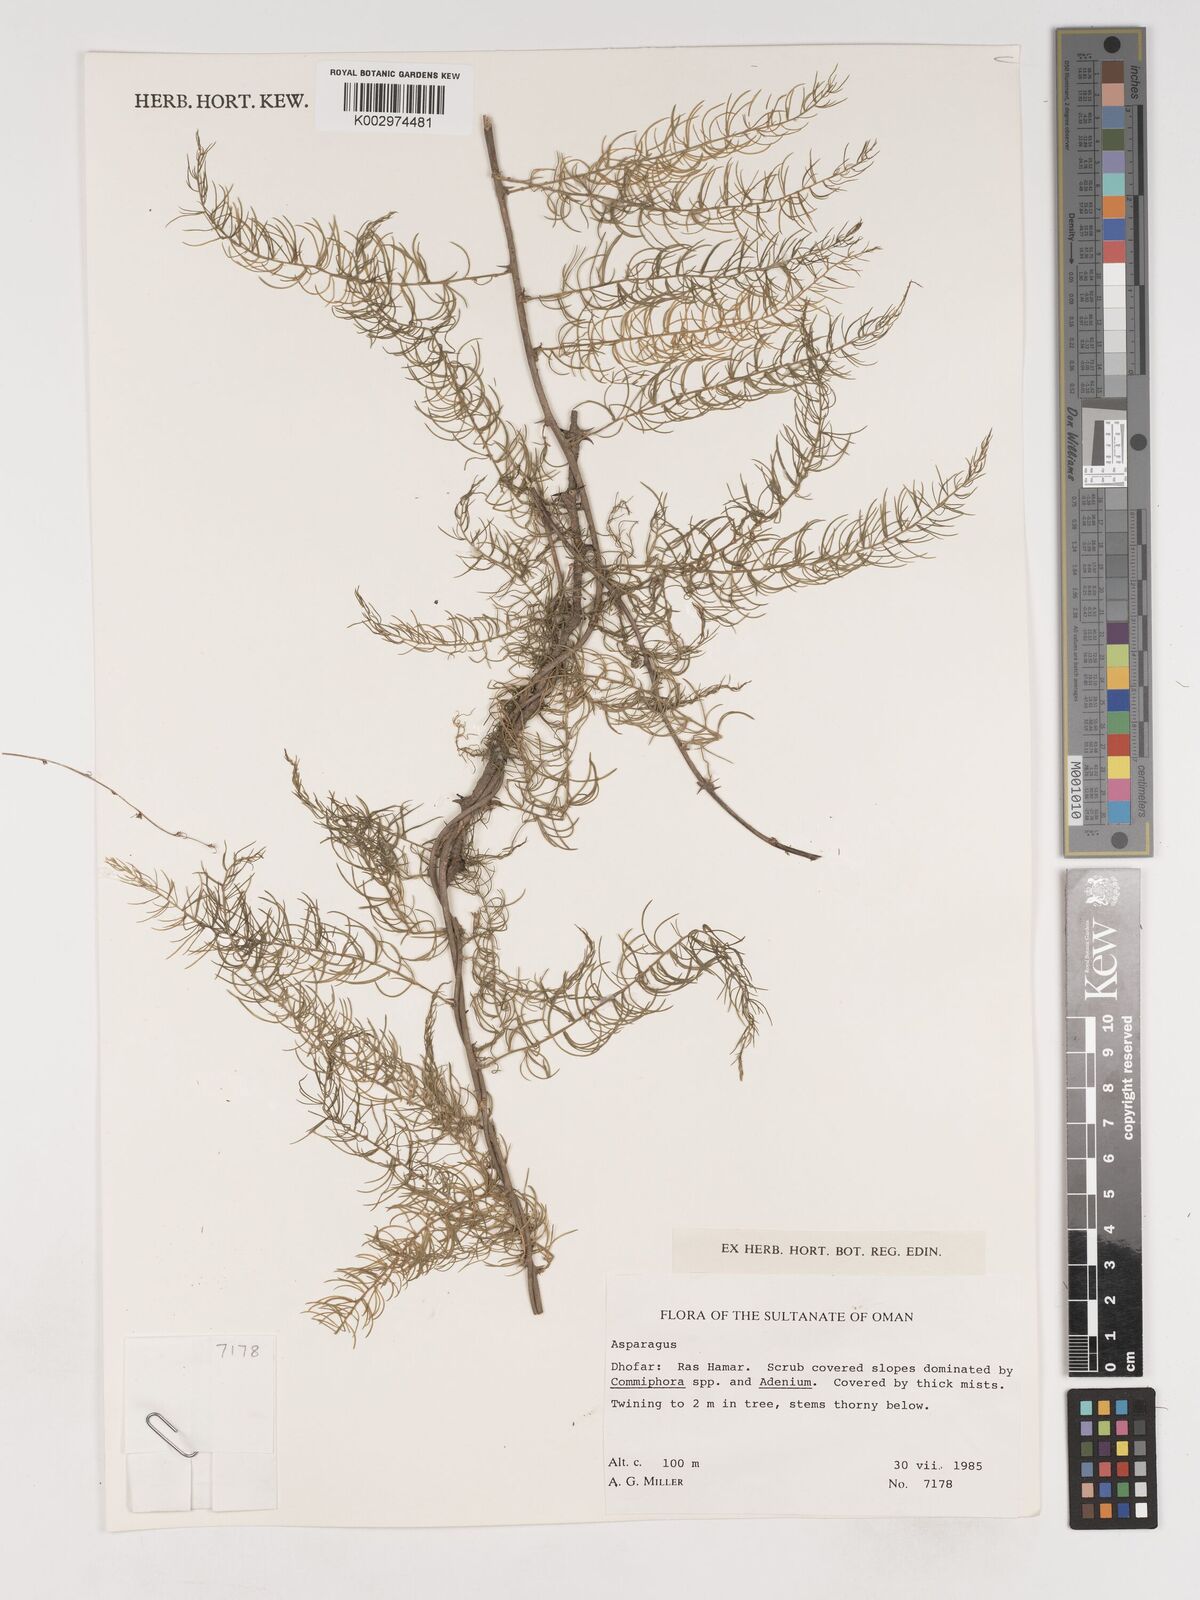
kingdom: Plantae
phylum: Tracheophyta
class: Liliopsida
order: Asparagales
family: Asparagaceae
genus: Asparagus
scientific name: Asparagus
